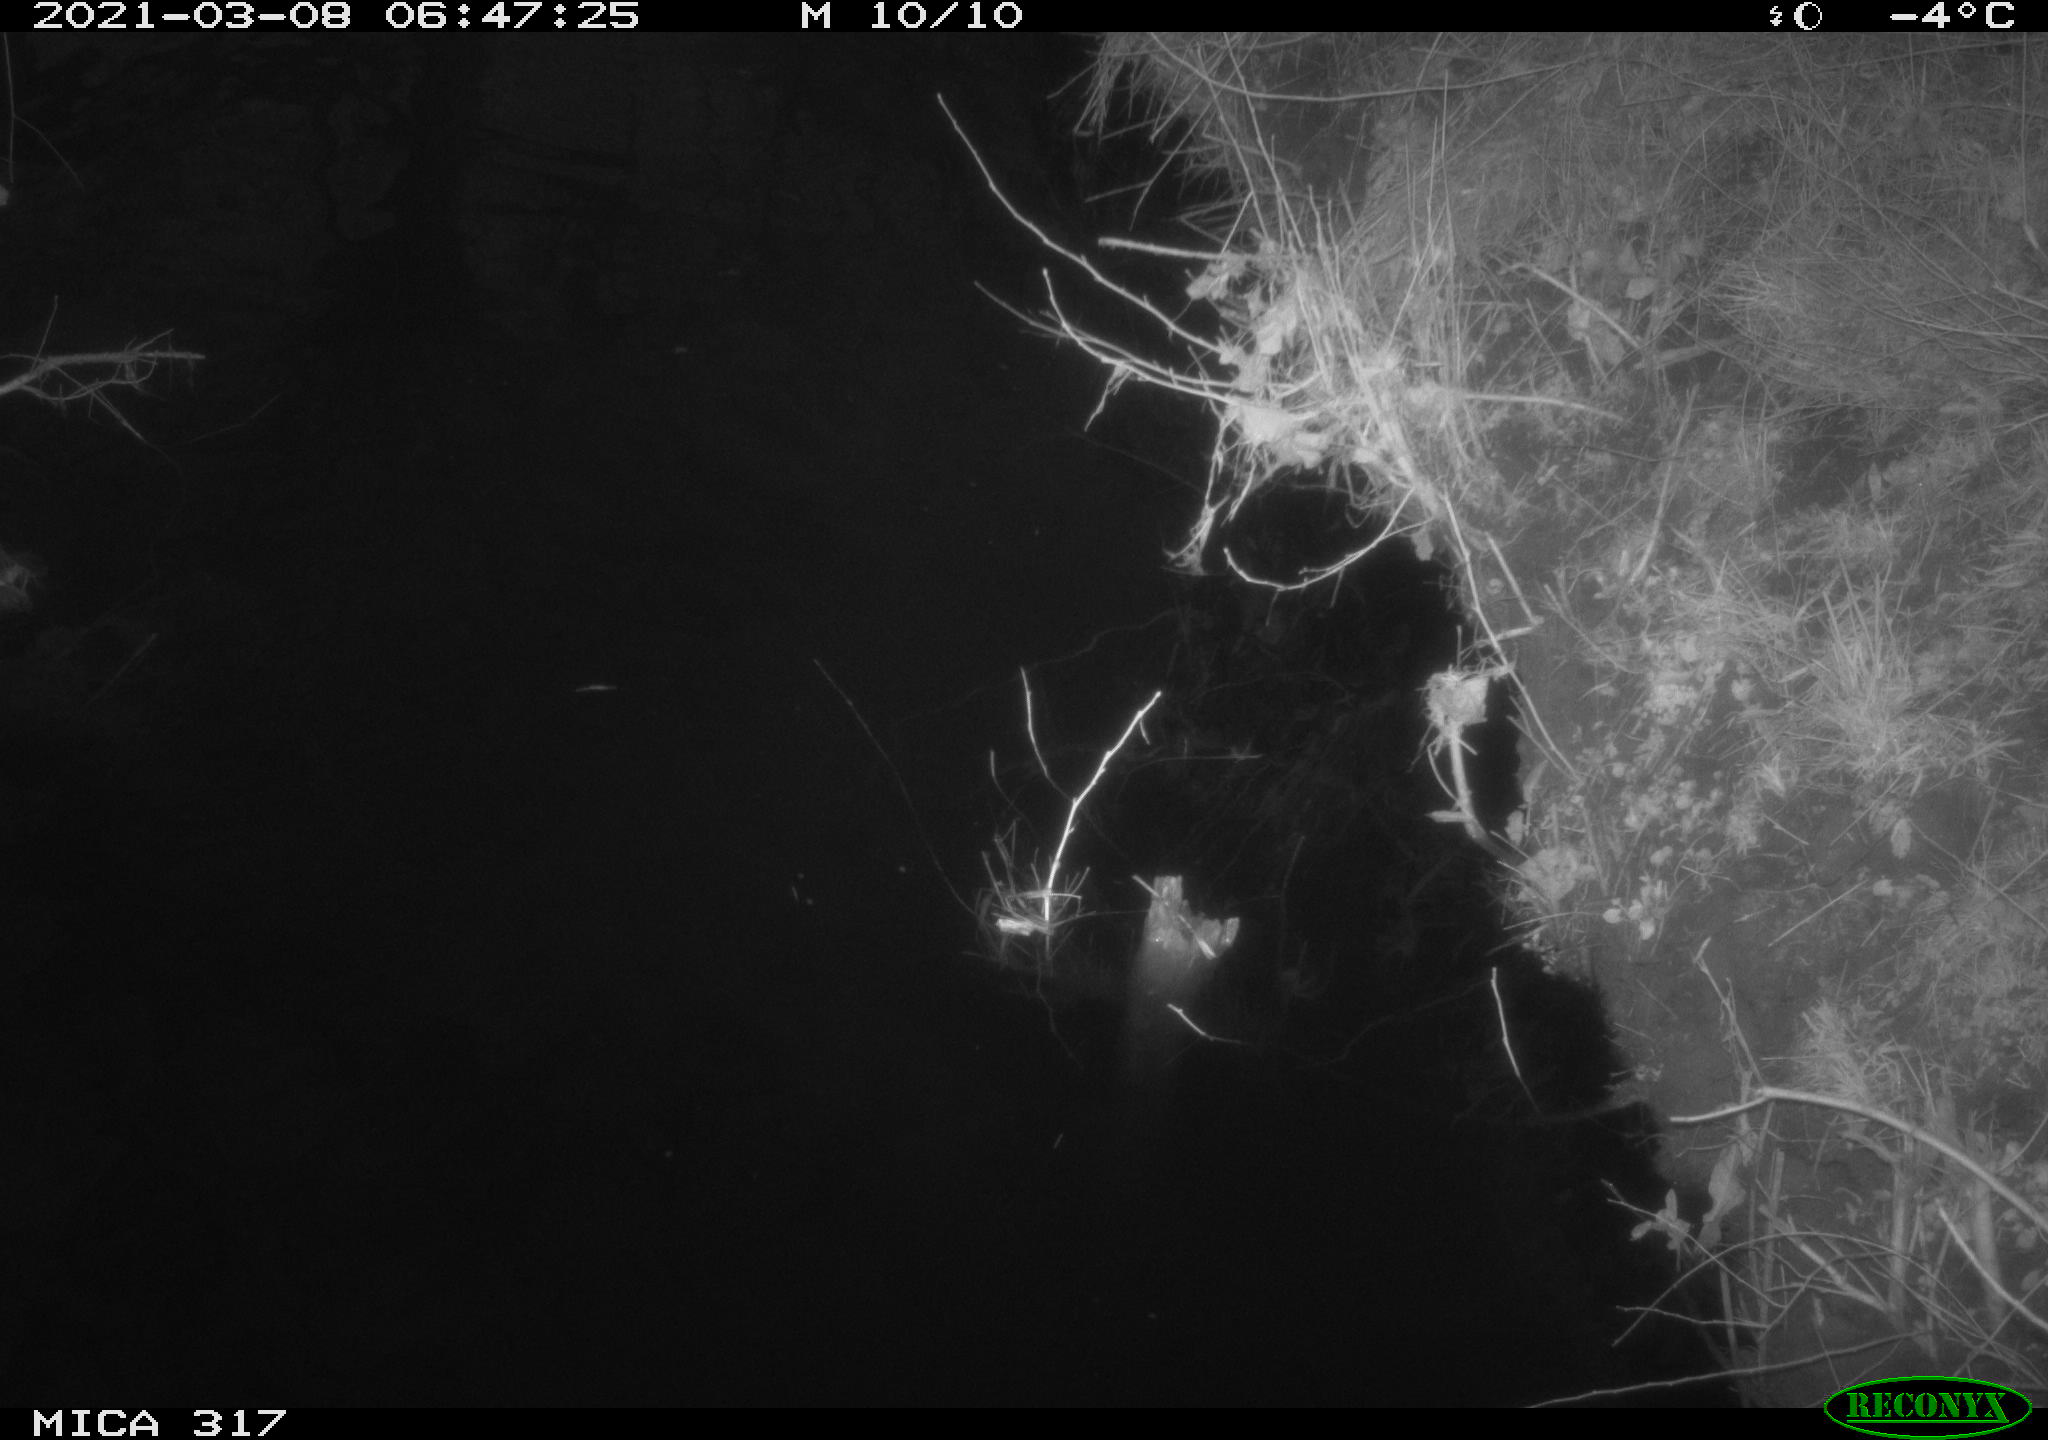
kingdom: Animalia
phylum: Chordata
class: Aves
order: Gruiformes
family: Rallidae
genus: Fulica
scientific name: Fulica atra
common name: Eurasian coot
